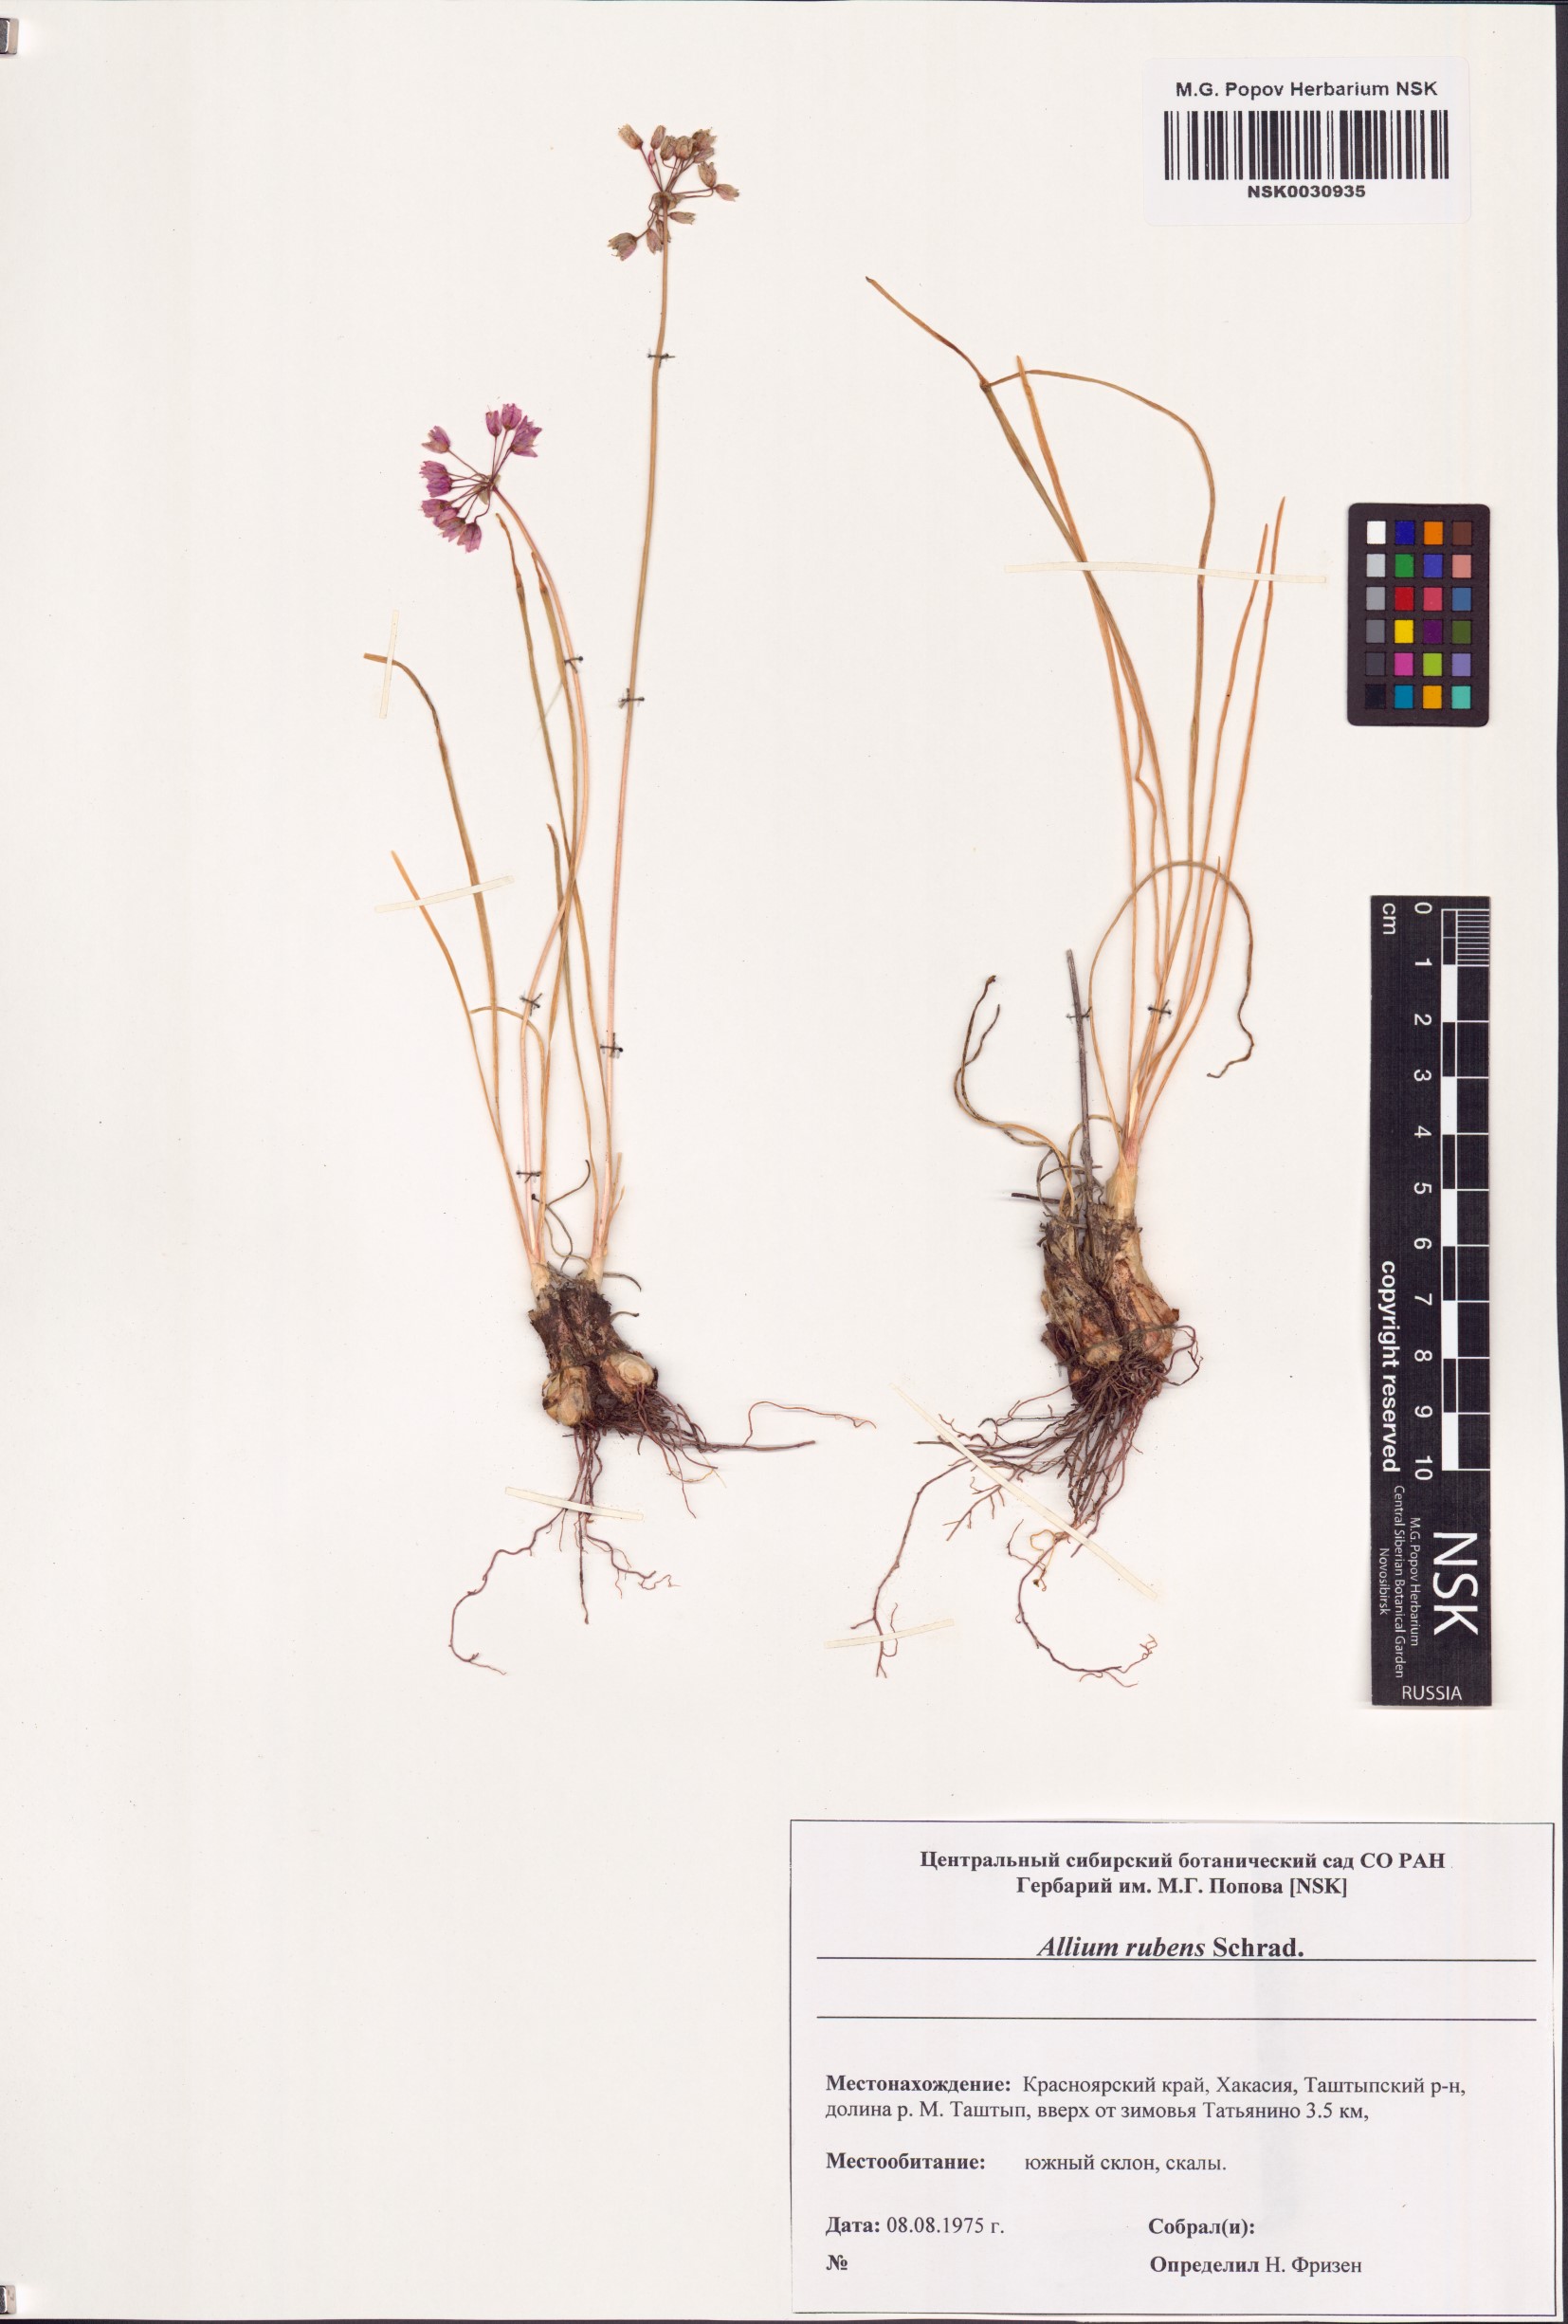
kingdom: Plantae
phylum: Tracheophyta
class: Liliopsida
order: Asparagales
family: Amaryllidaceae
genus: Allium
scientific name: Allium rubens
